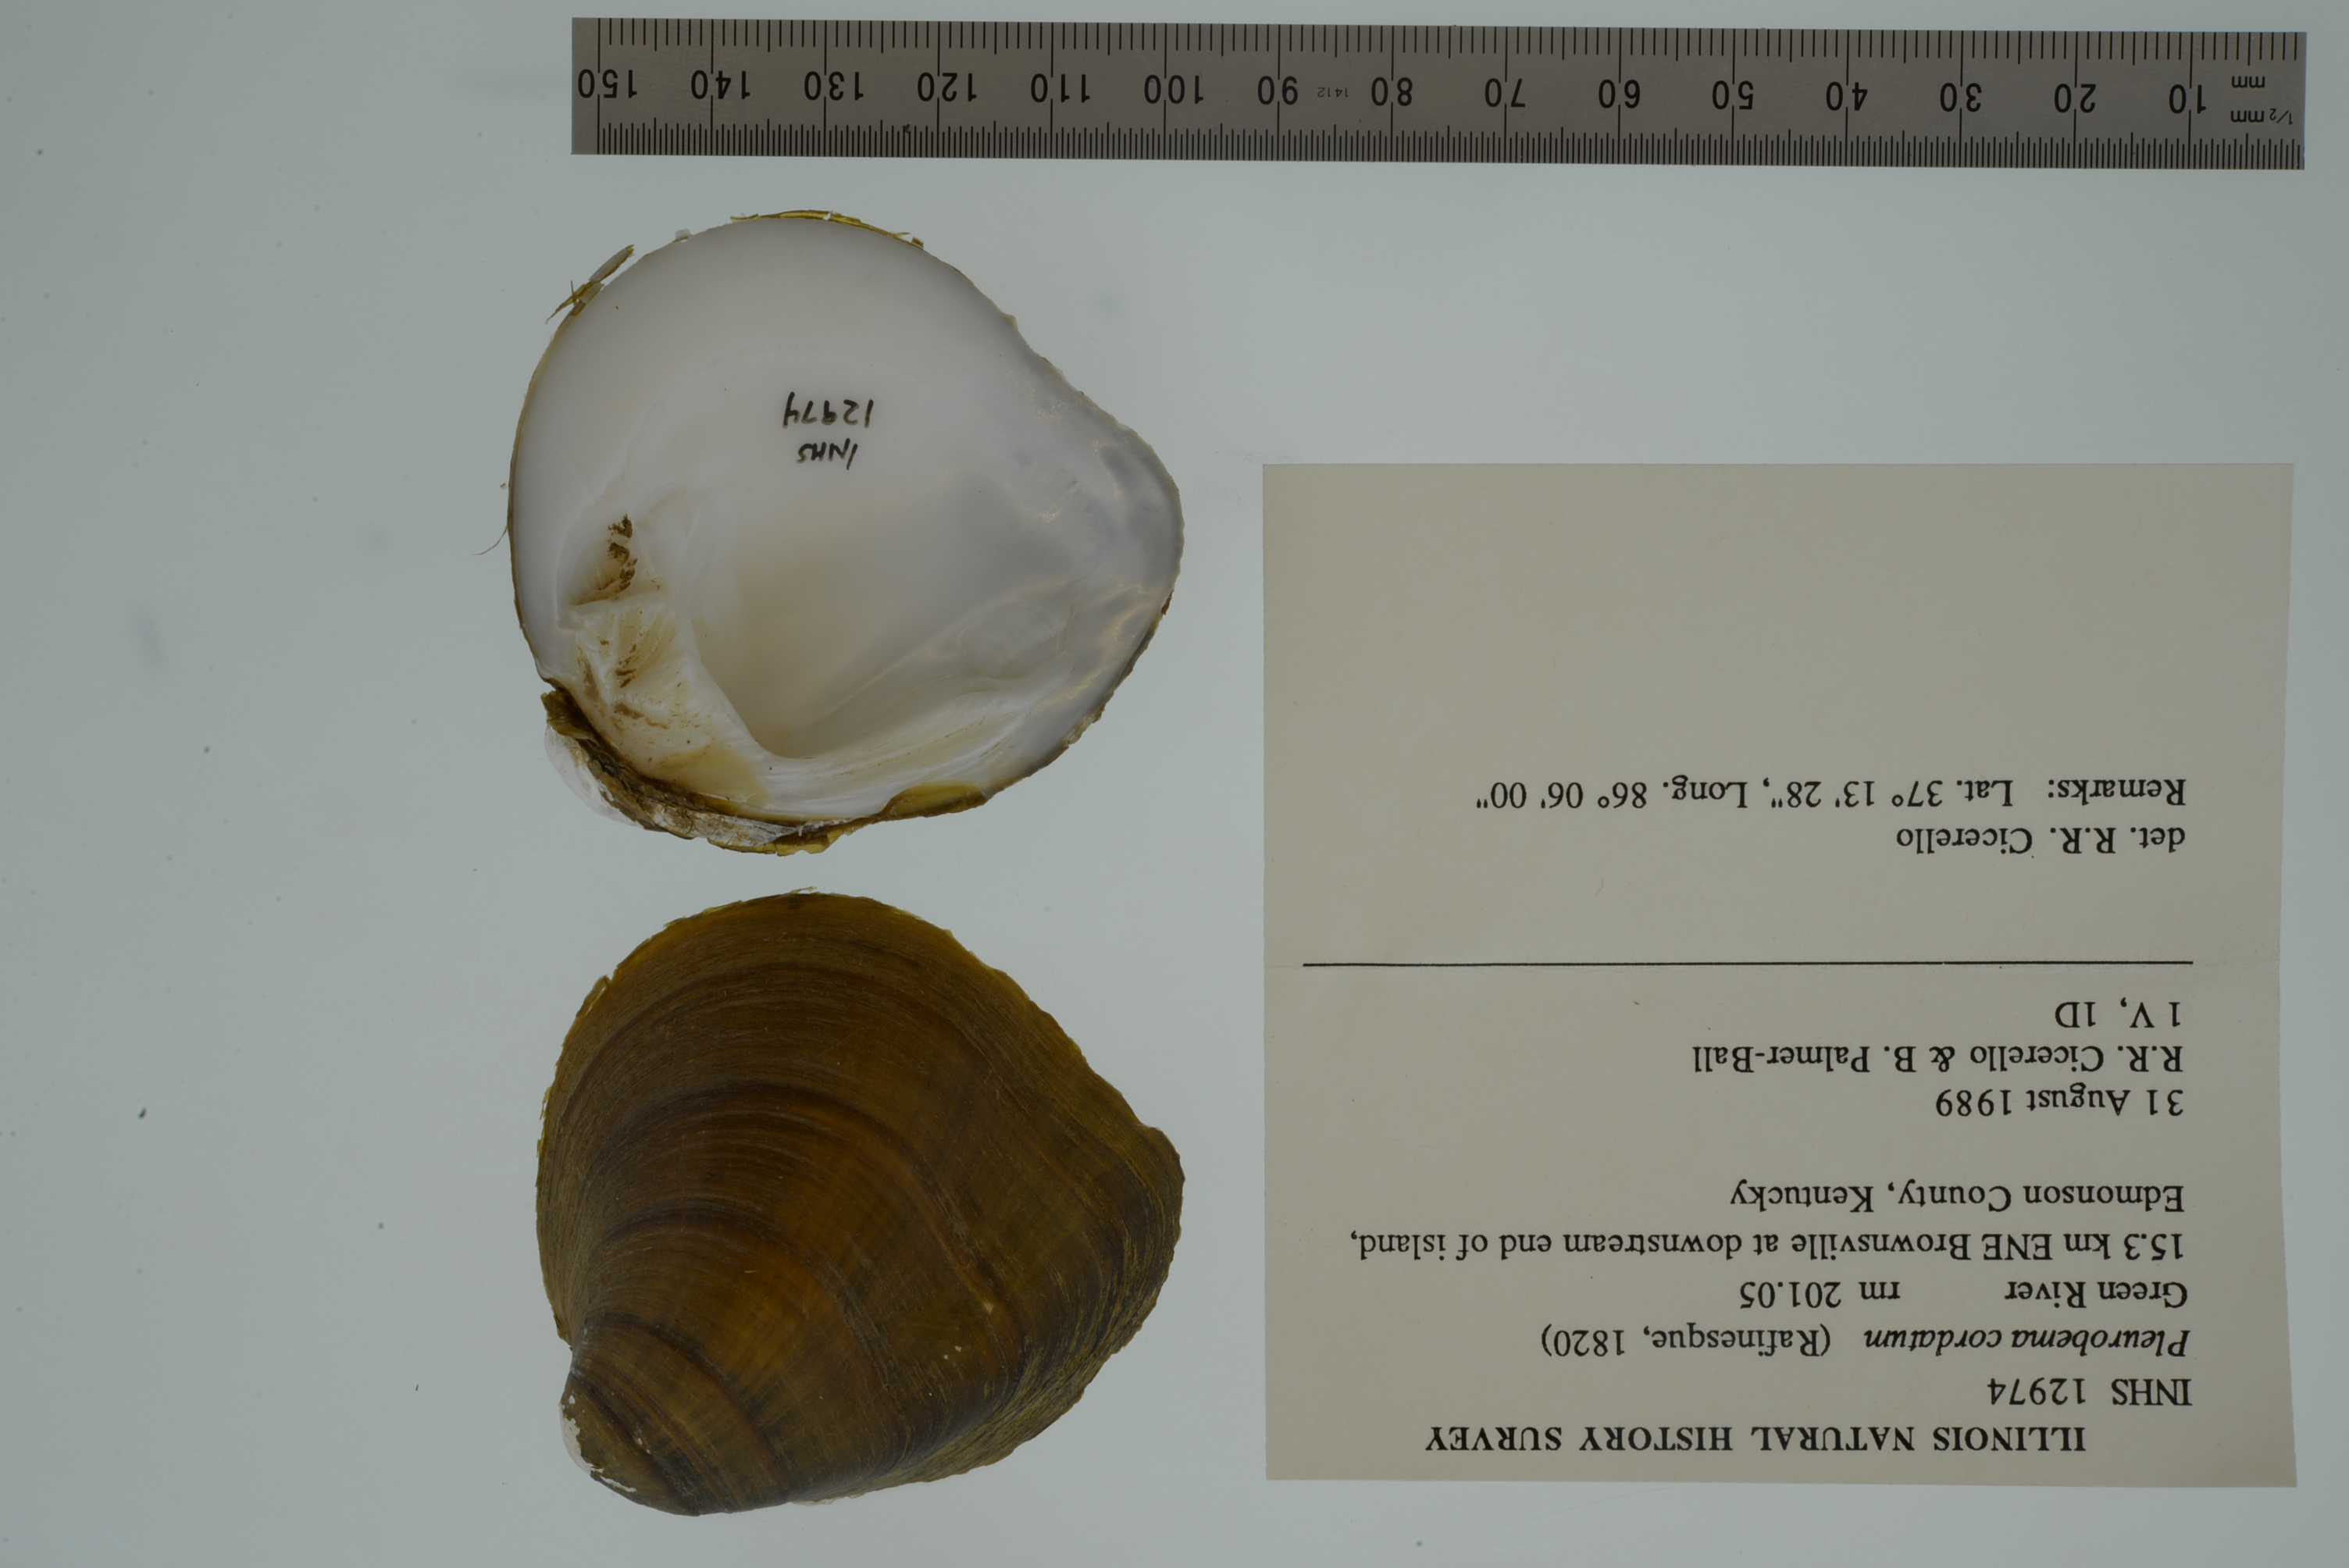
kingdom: Animalia
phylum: Mollusca
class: Bivalvia
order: Unionida
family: Unionidae
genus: Pleurobema
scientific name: Pleurobema cordatum
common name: Ohio pigtoe
